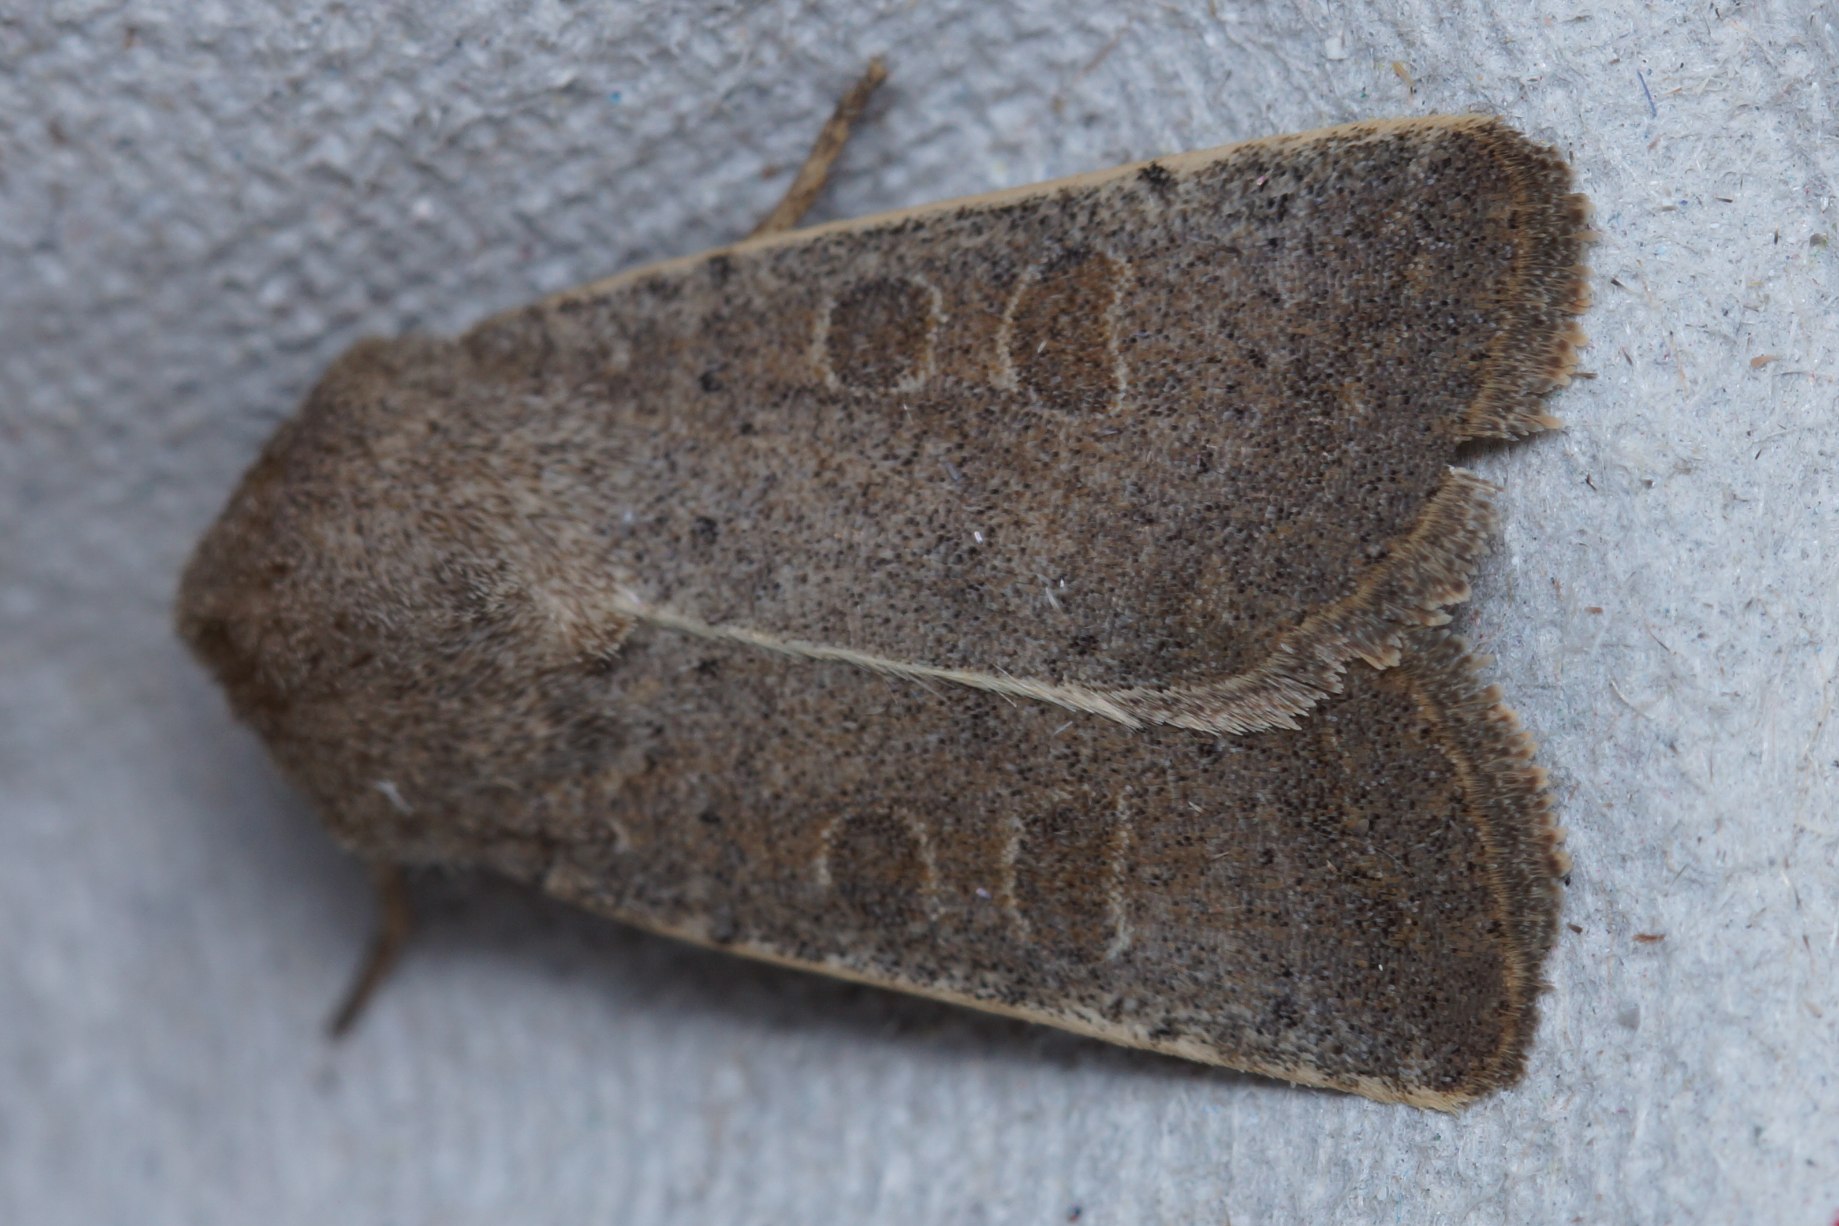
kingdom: Animalia
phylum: Arthropoda
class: Insecta
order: Lepidoptera
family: Noctuidae
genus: Hoplodrina
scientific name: Hoplodrina ambigua
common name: Tvivlsom mus
